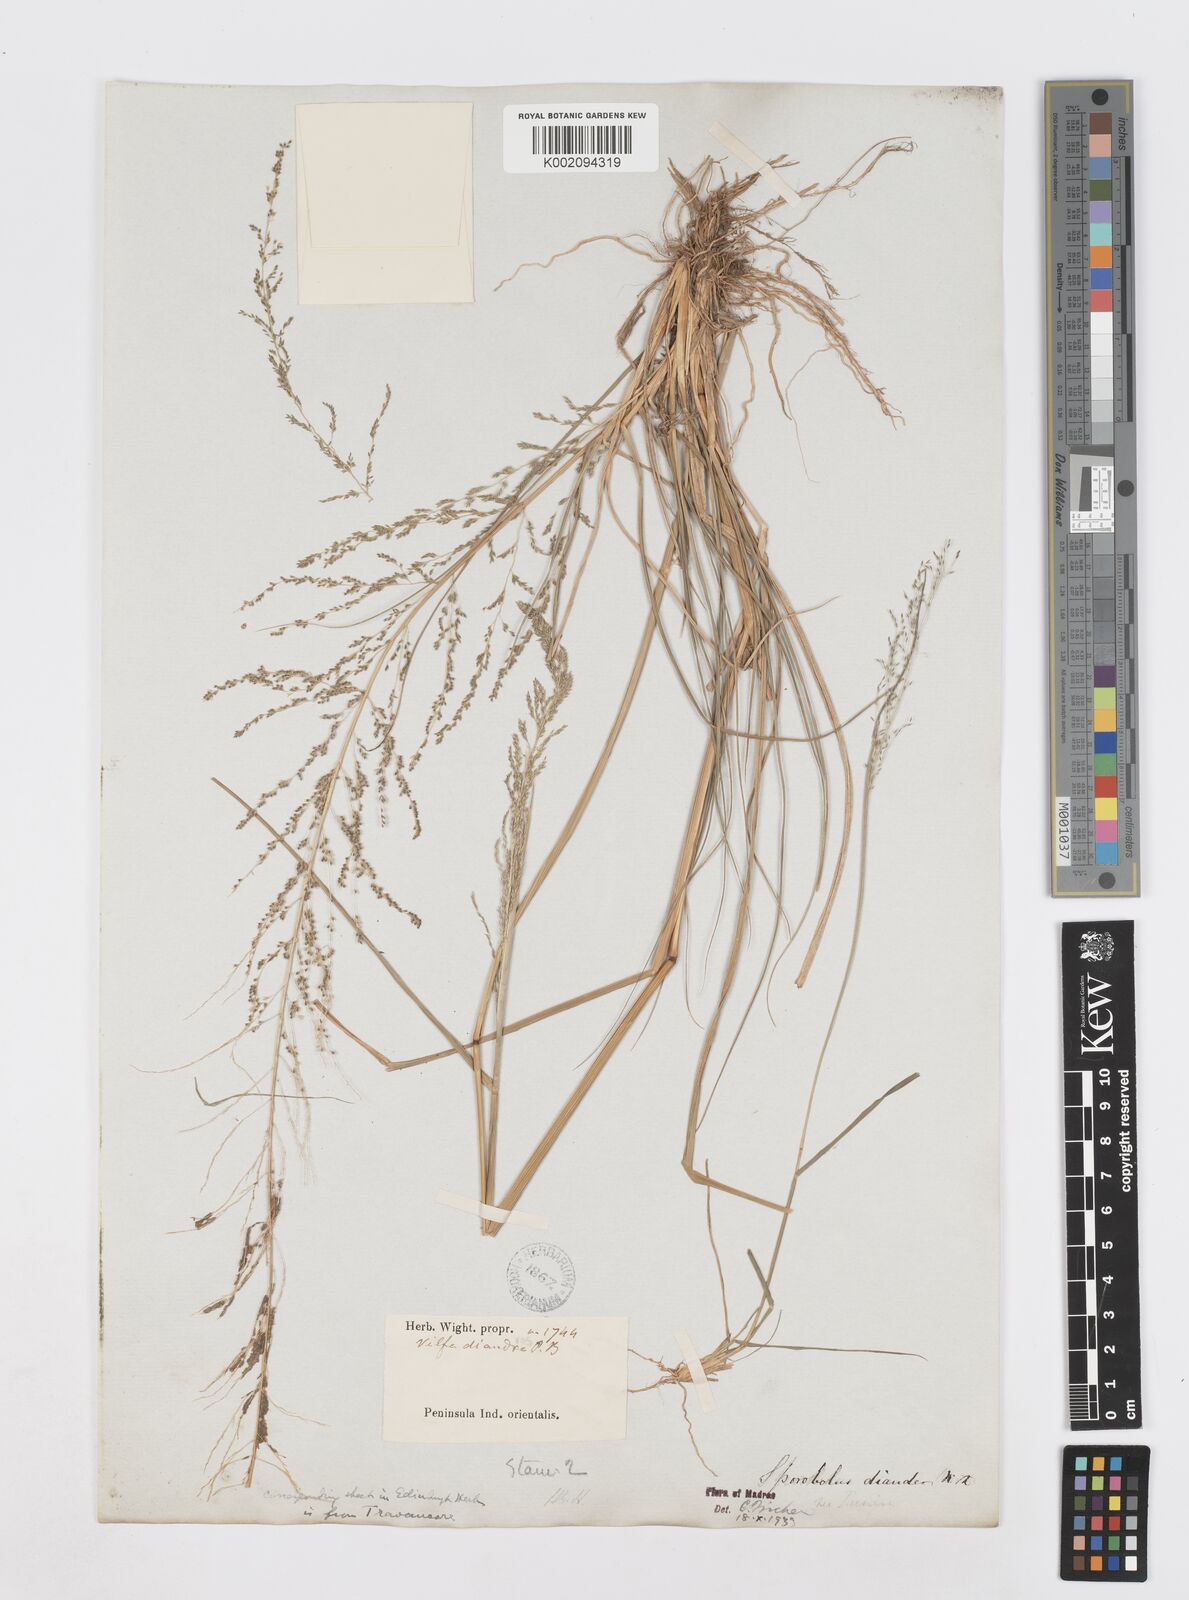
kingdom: Plantae
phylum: Tracheophyta
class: Liliopsida
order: Poales
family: Poaceae
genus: Sporobolus
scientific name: Sporobolus diandrus
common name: Tussock dropseed
